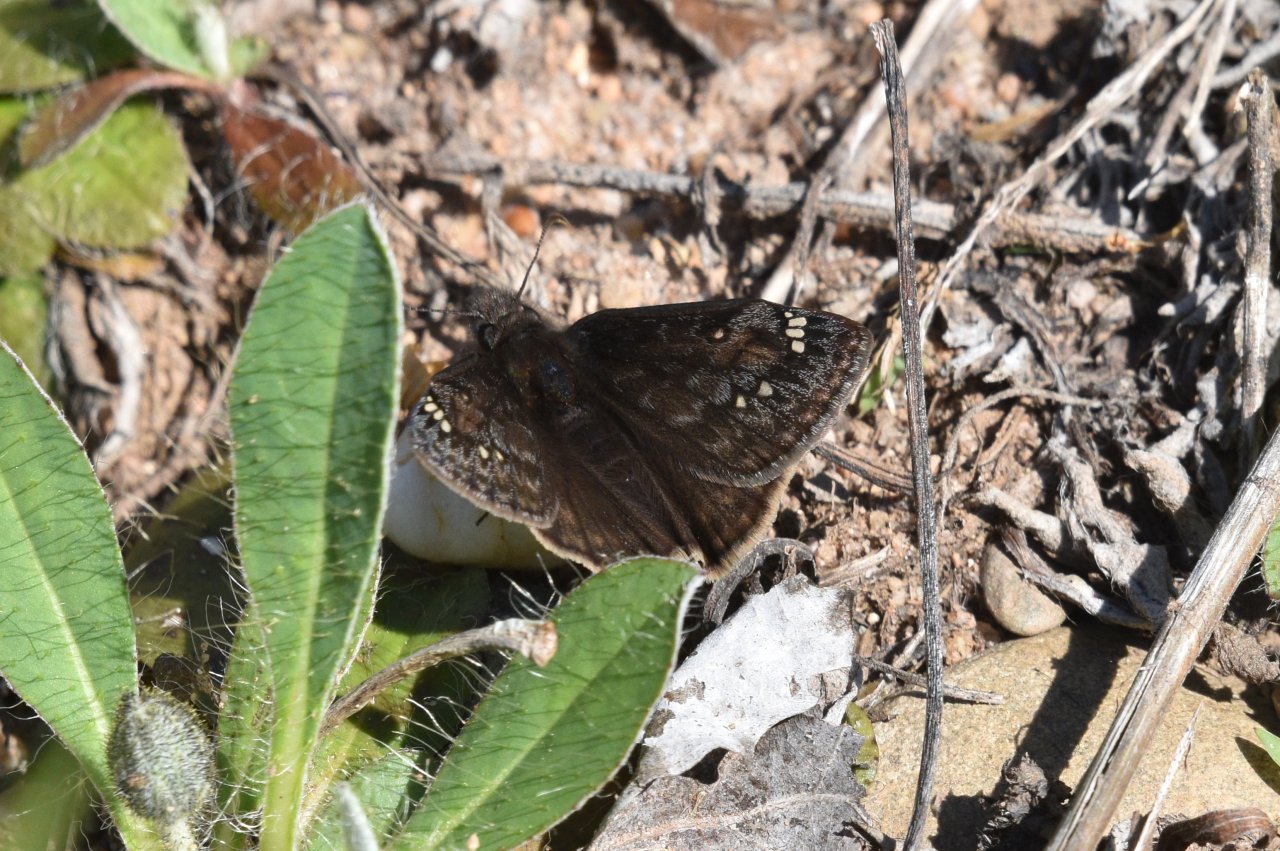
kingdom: Animalia
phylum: Arthropoda
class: Insecta
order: Lepidoptera
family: Hesperiidae
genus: Gesta
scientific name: Gesta
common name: Juvenal's Duskywing
